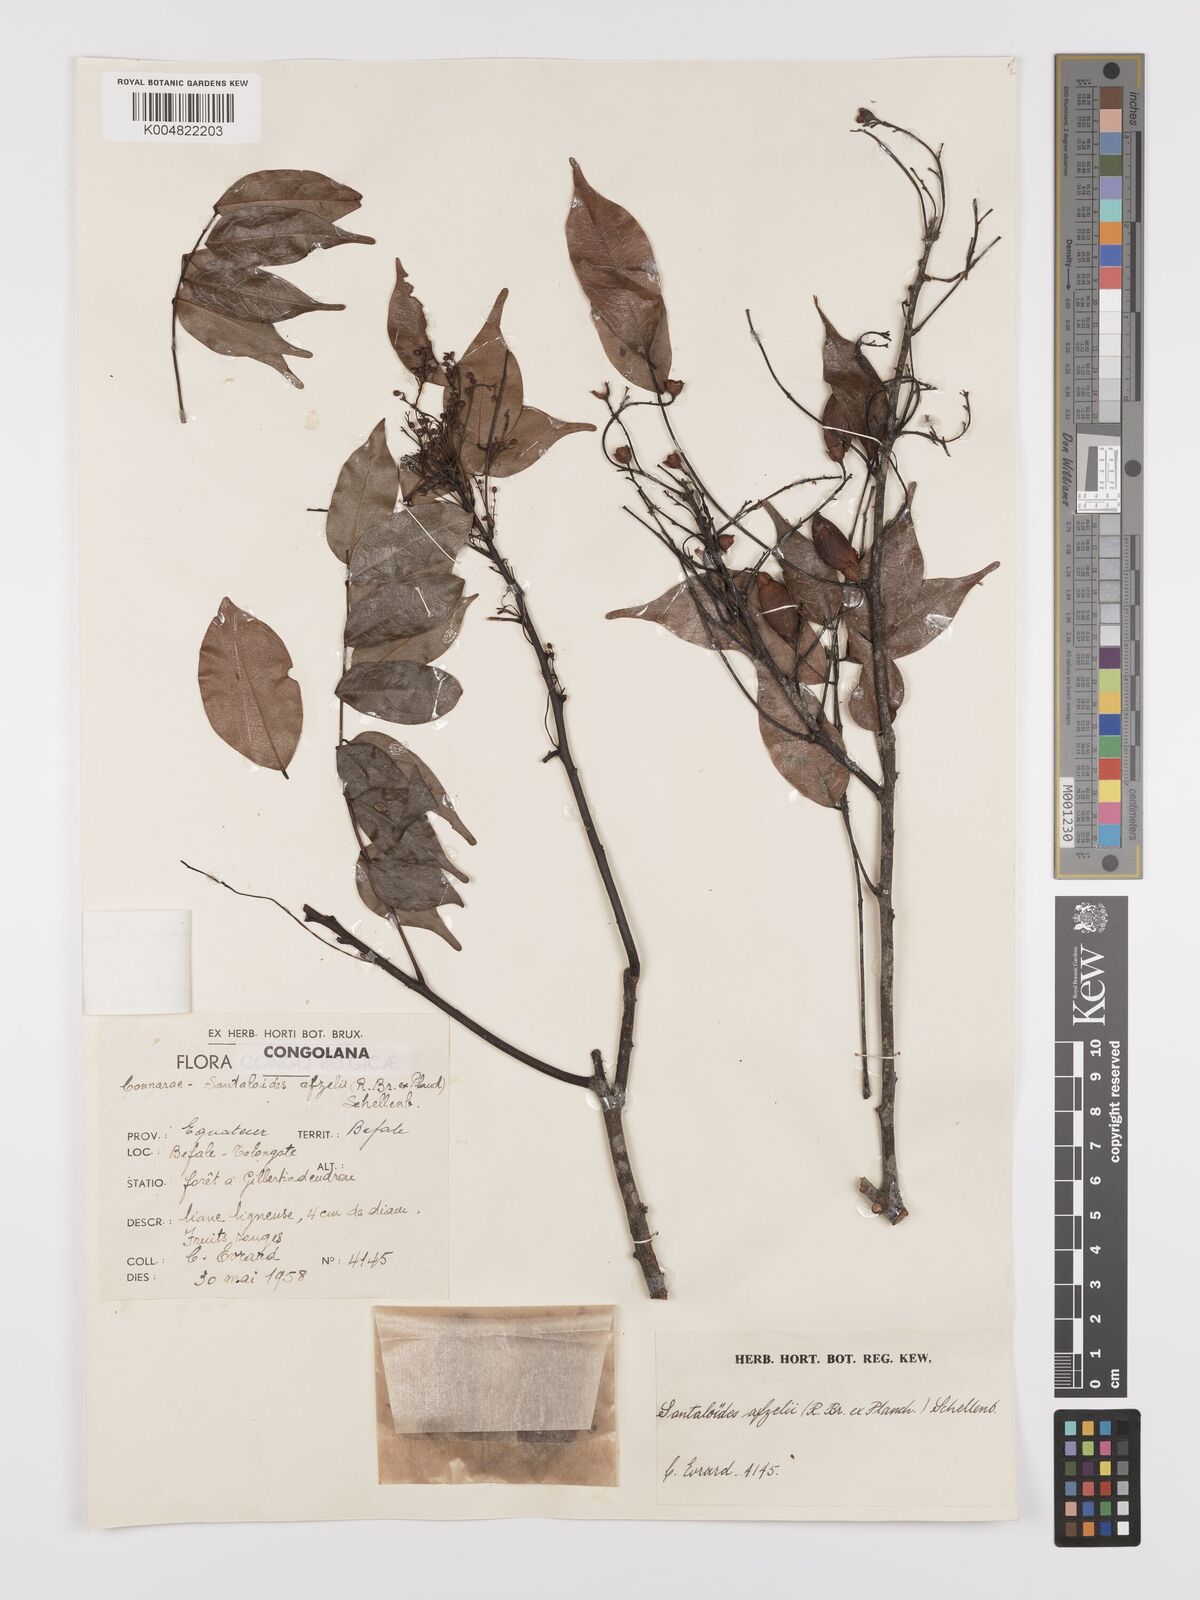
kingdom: Plantae
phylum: Tracheophyta
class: Magnoliopsida
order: Oxalidales
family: Connaraceae
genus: Rourea
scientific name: Rourea minor
